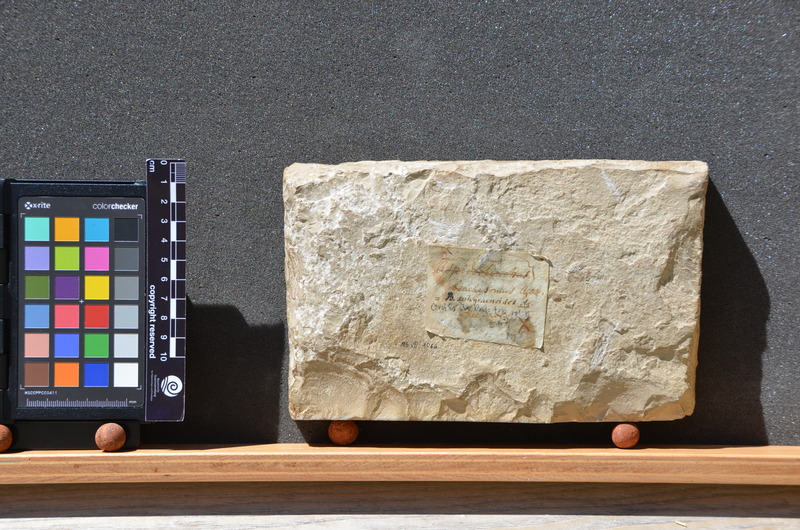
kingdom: Animalia
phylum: Chordata
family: Aspidorhynchidae
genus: Belonostomus
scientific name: Belonostomus sphyraenoides
